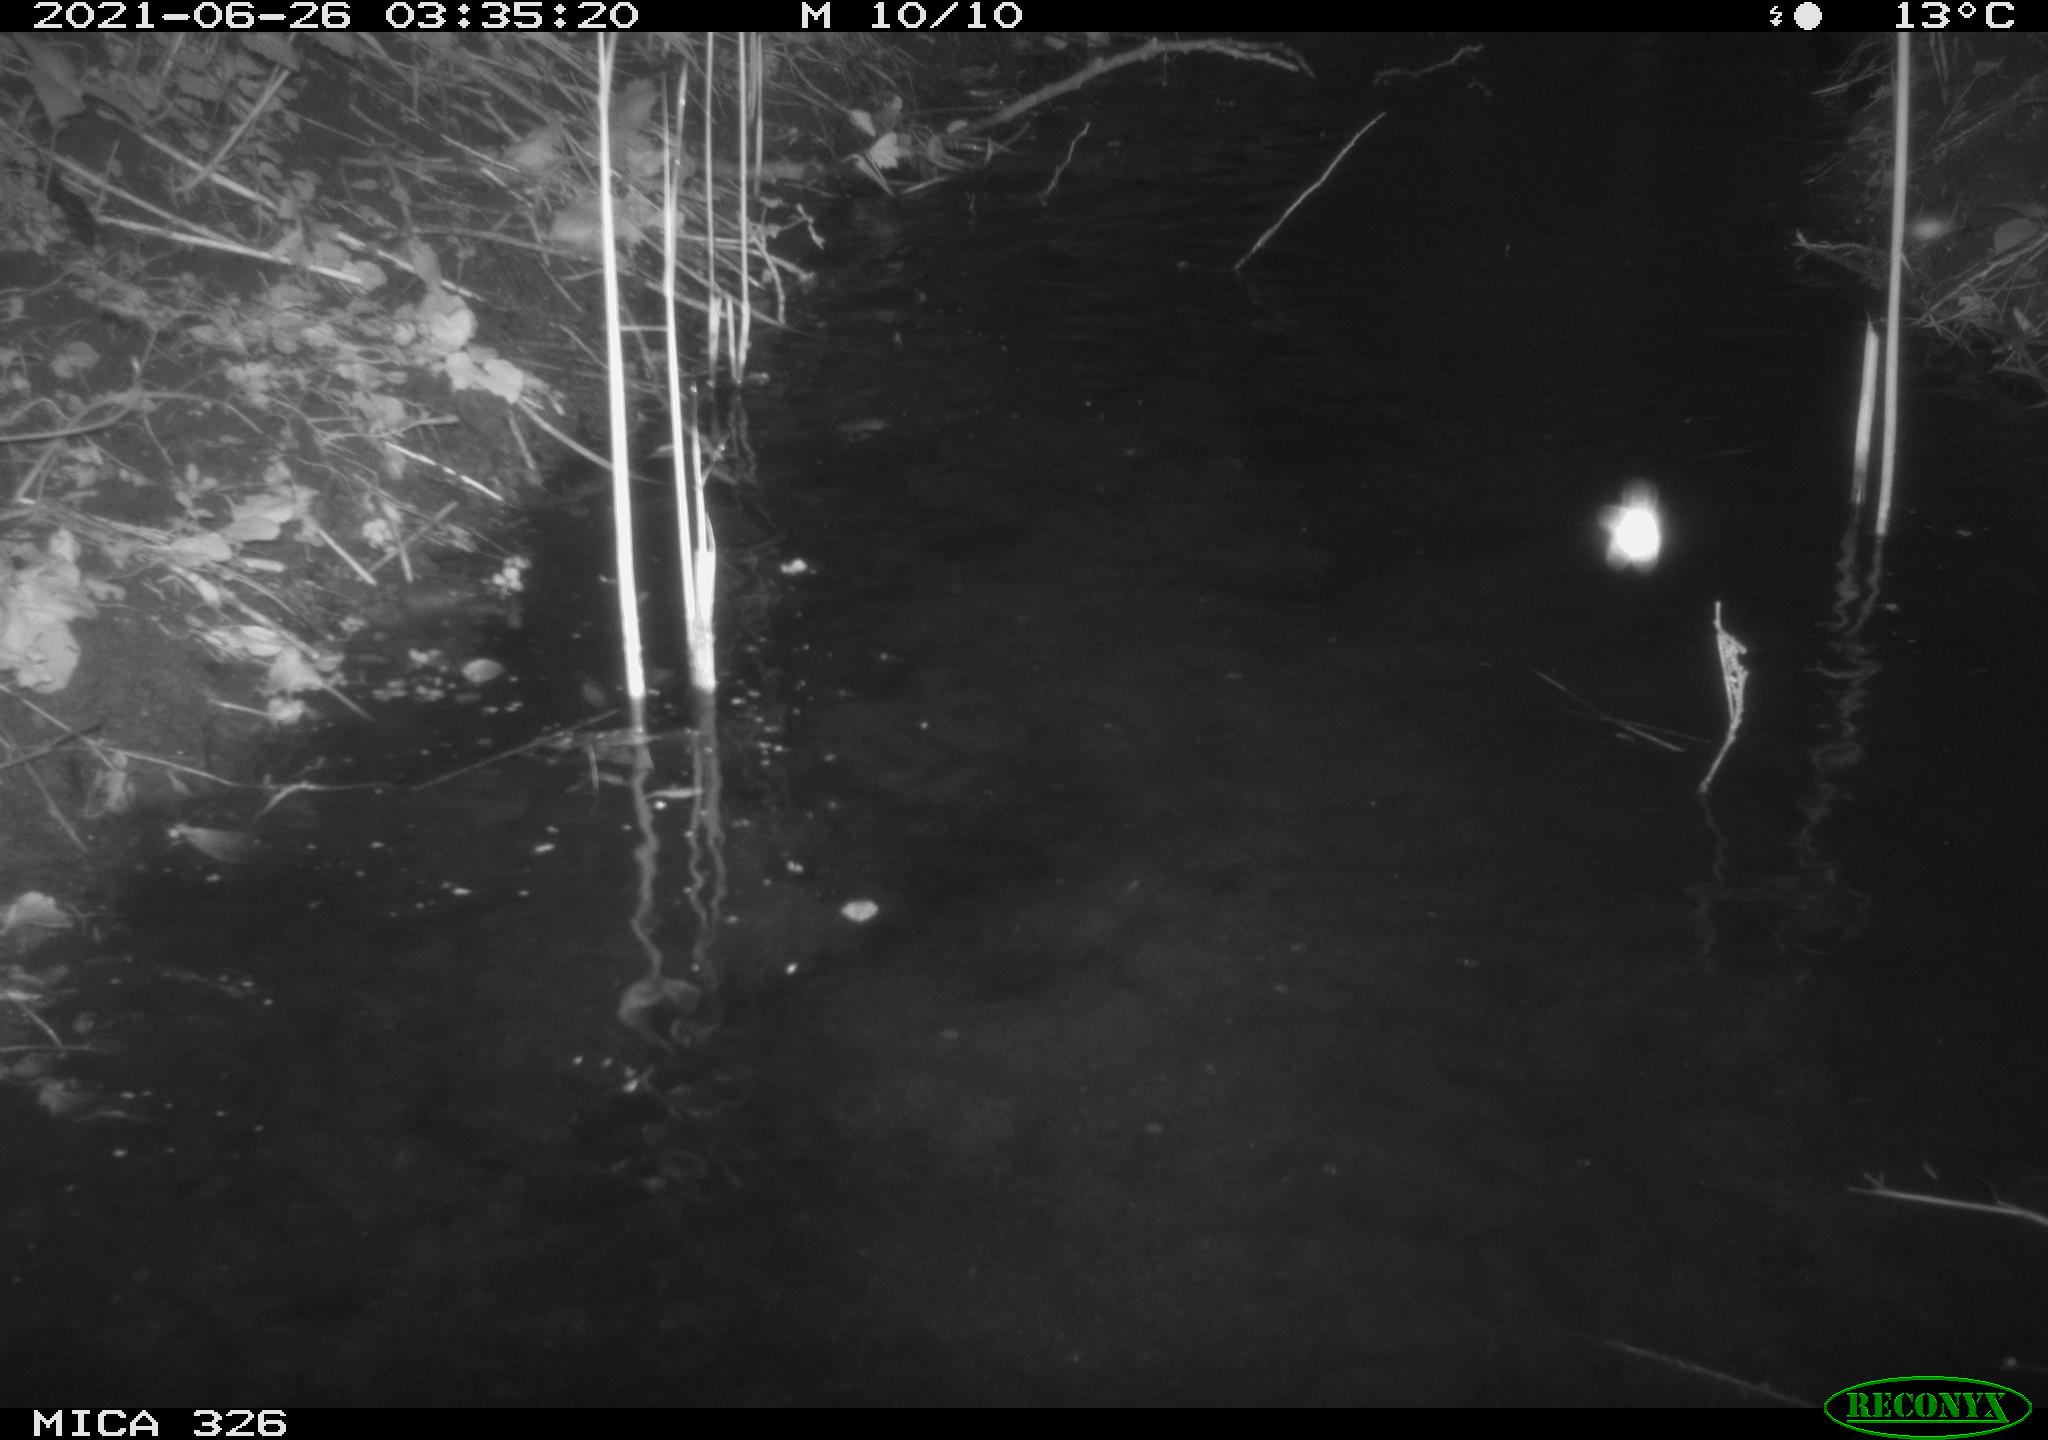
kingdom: Animalia
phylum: Chordata
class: Mammalia
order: Carnivora
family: Mustelidae
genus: Lutra
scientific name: Lutra lutra
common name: European otter
